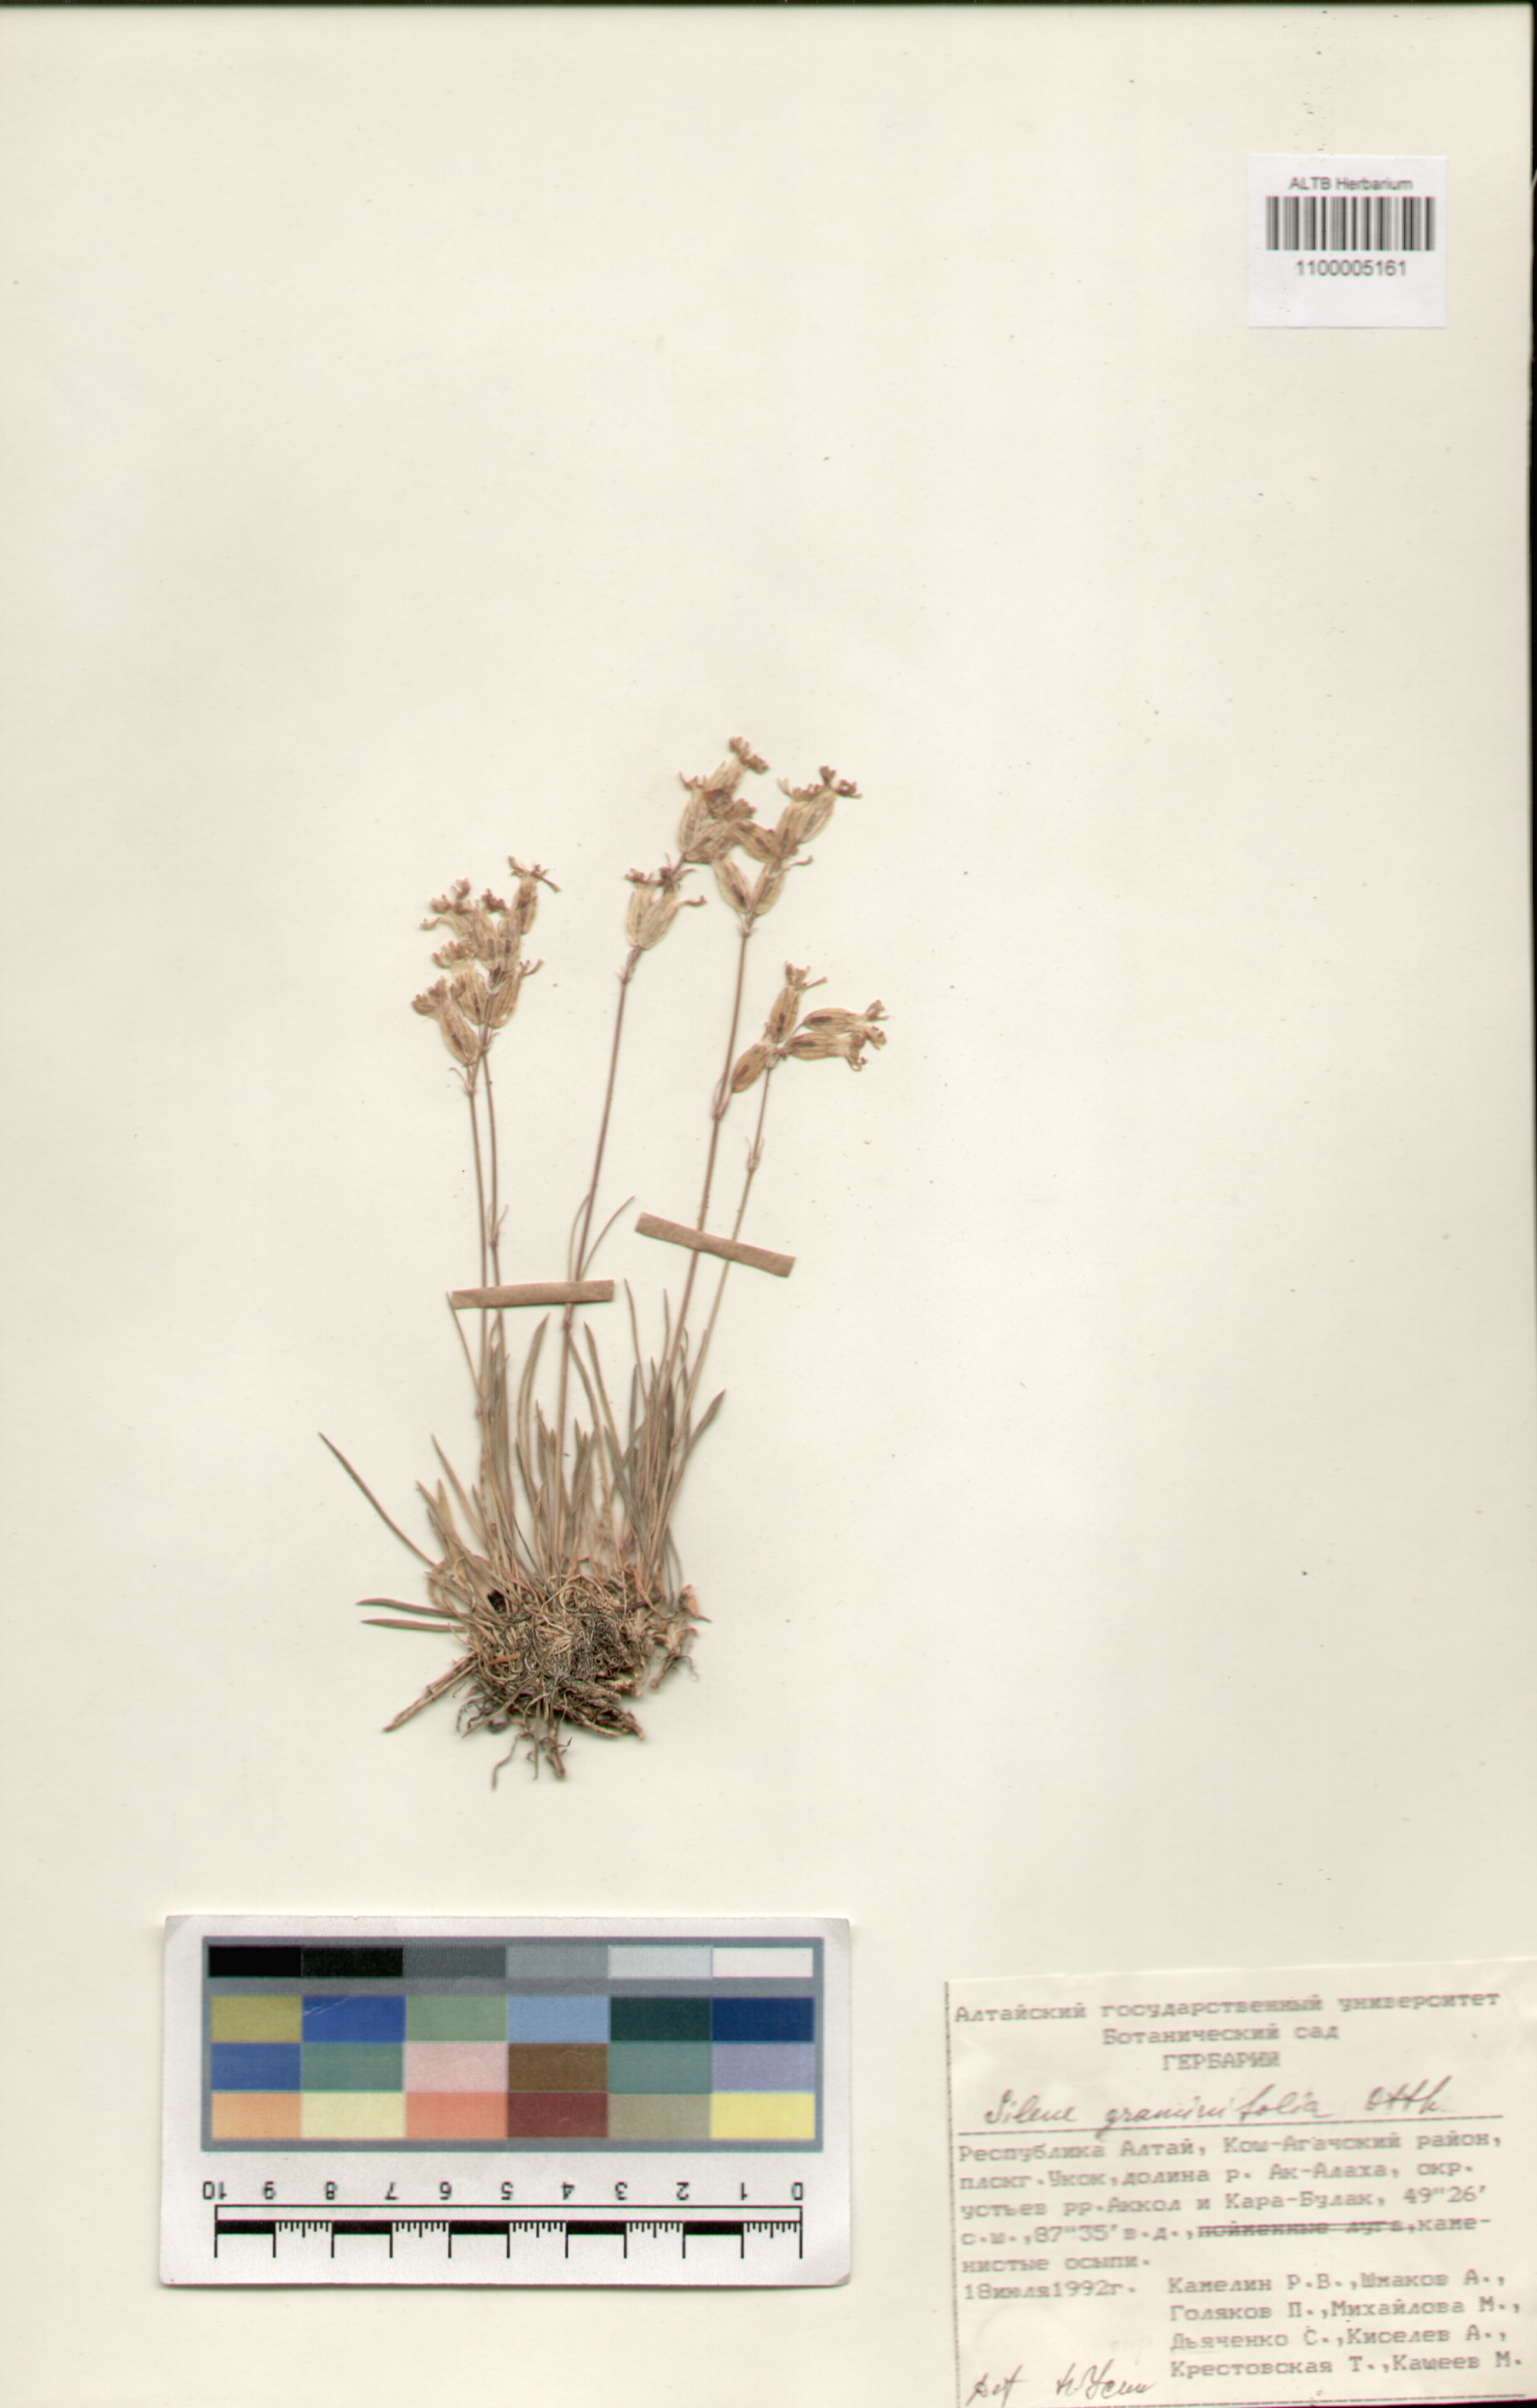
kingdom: Plantae
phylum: Tracheophyta
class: Magnoliopsida
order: Caryophyllales
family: Caryophyllaceae
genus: Silene
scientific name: Silene graminifolia
